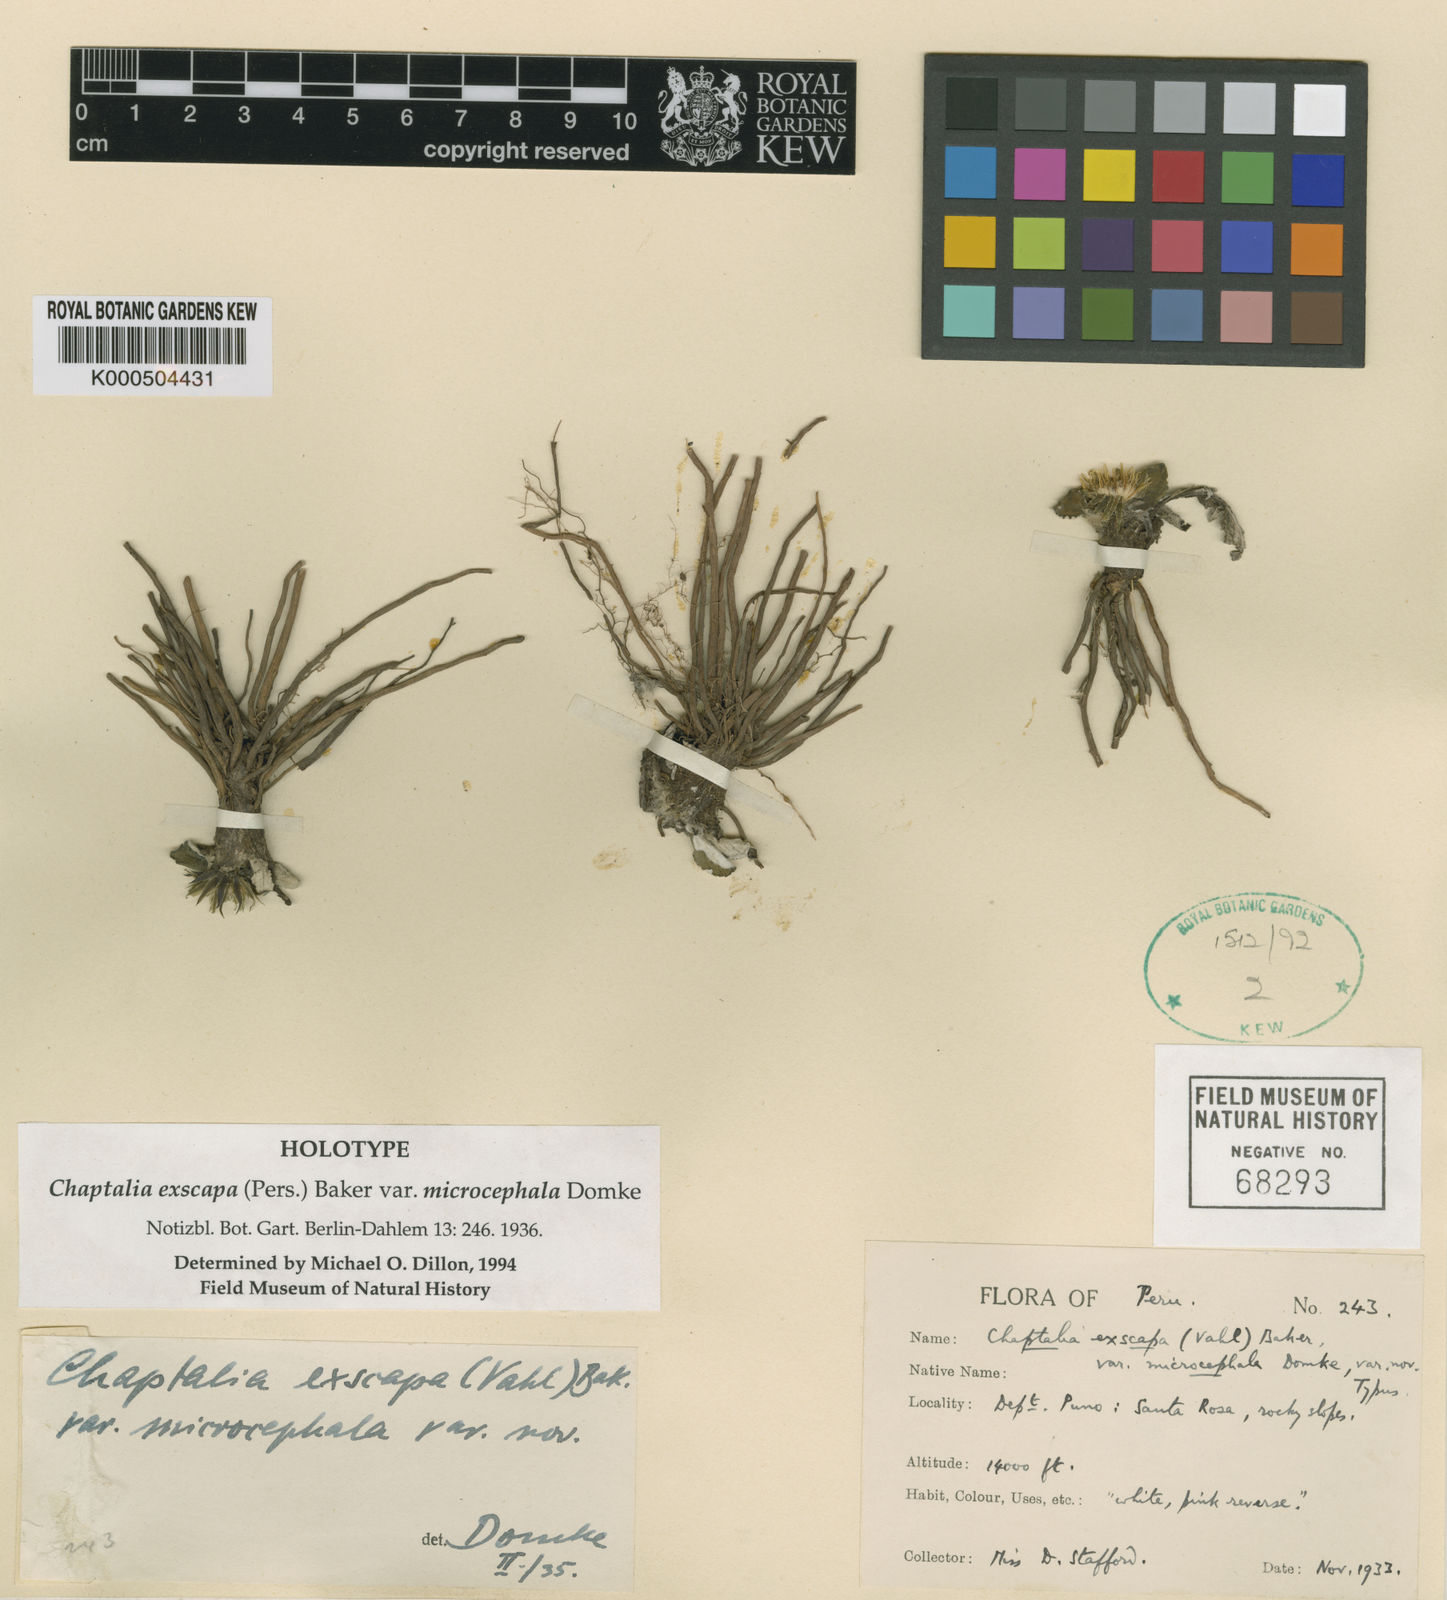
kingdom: Plantae
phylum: Tracheophyta
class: Magnoliopsida
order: Asterales
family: Asteraceae
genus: Chaptalia
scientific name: Chaptalia exscapa
